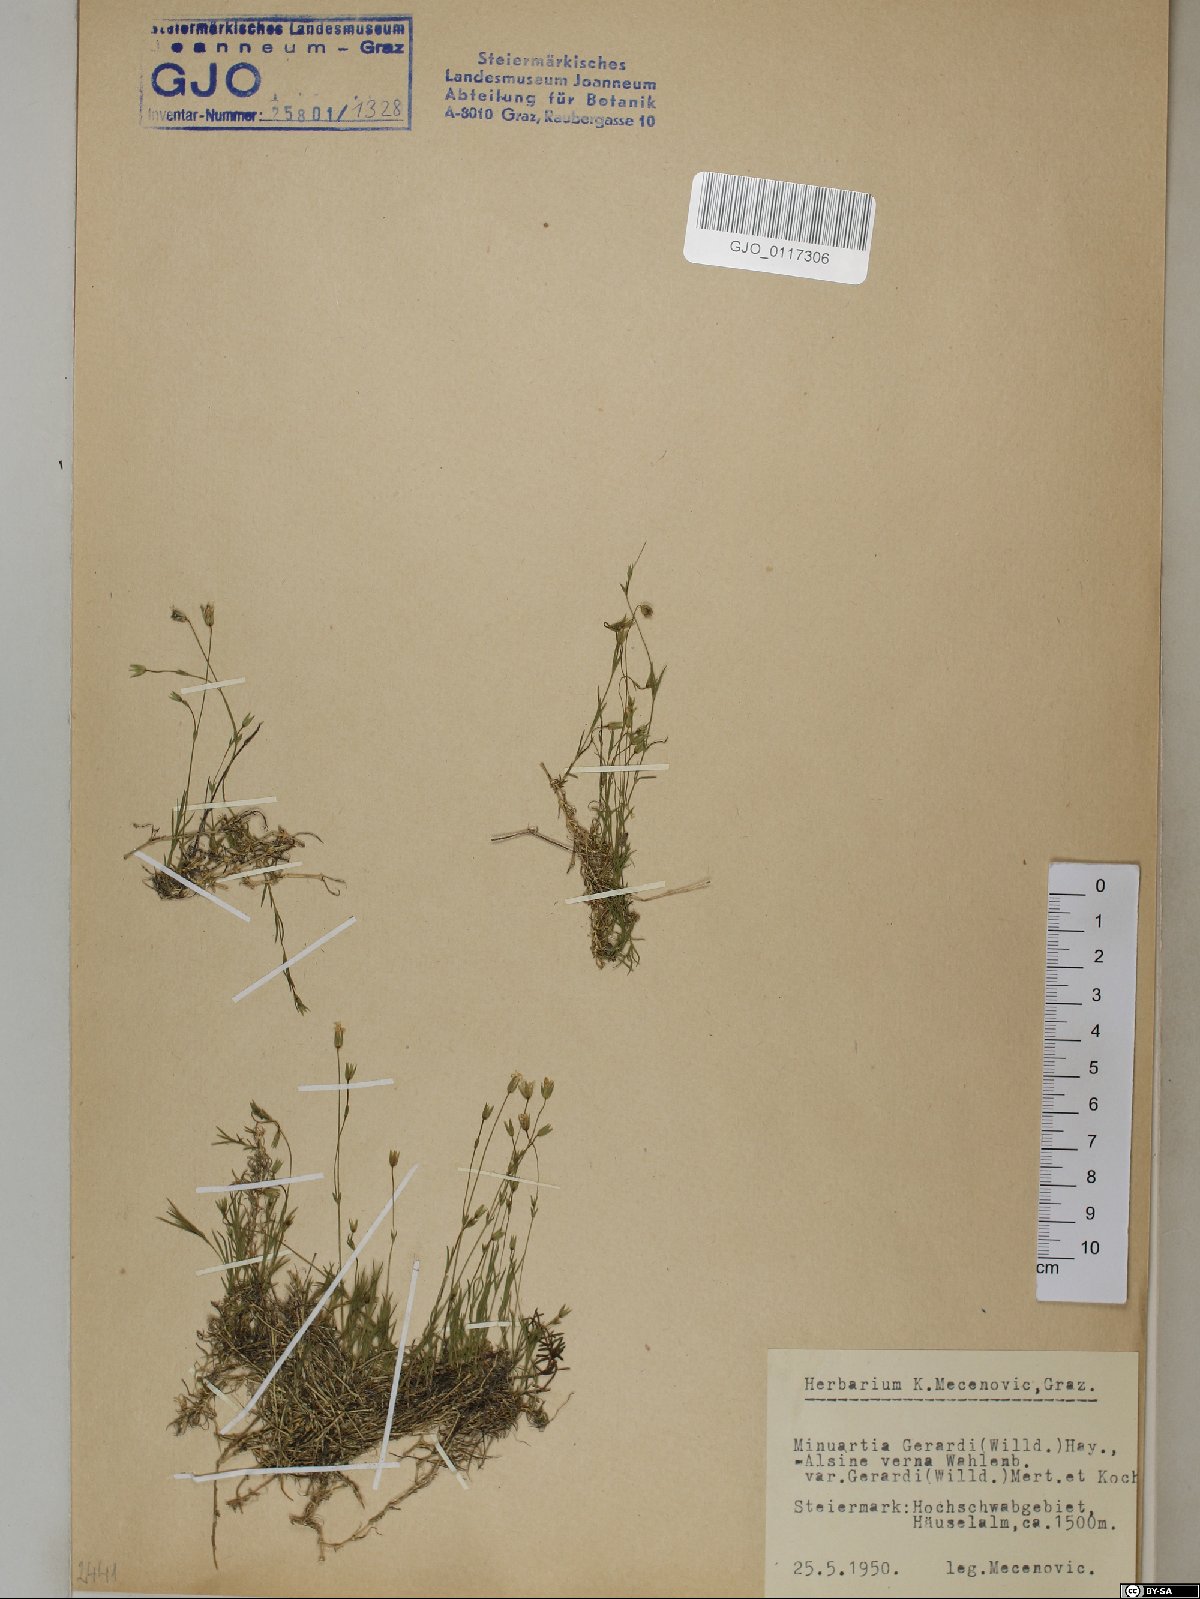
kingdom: Plantae
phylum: Tracheophyta
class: Magnoliopsida
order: Caryophyllales
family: Caryophyllaceae
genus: Sabulina
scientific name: Sabulina verna
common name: Spring sandwort
